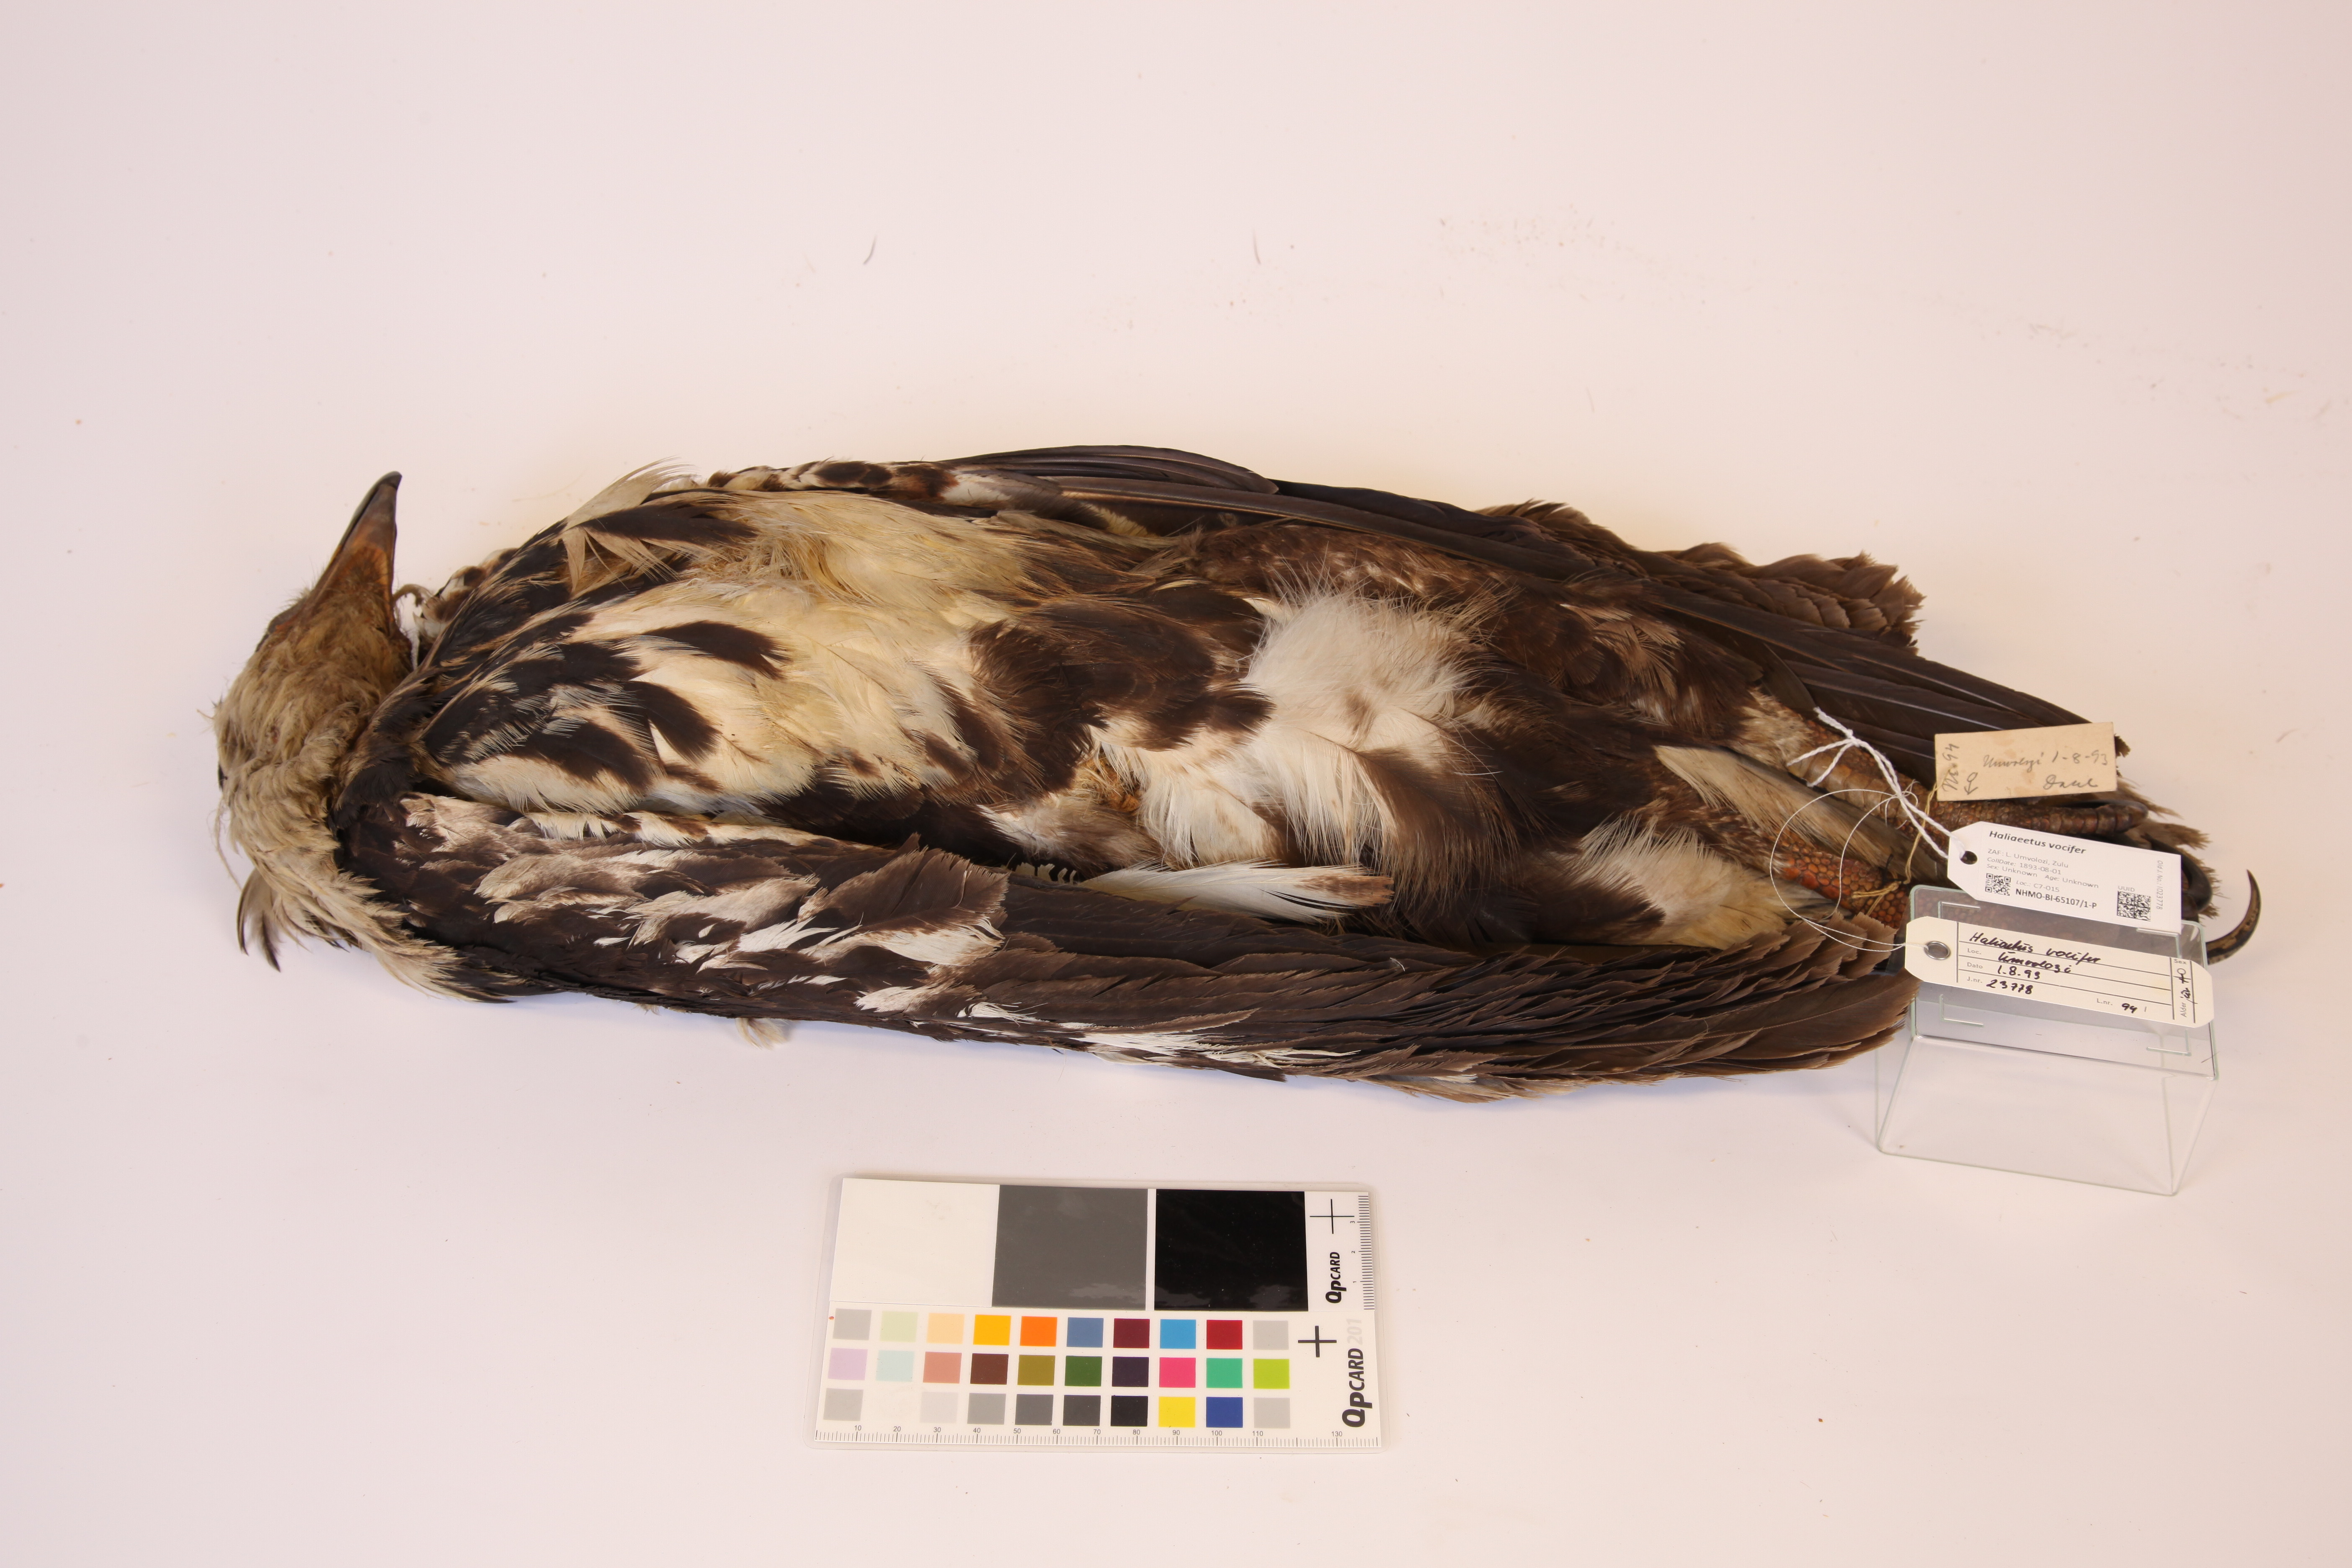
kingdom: Animalia
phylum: Chordata
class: Aves
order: Accipitriformes
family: Accipitridae
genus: Haliaeetus
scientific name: Haliaeetus vocifer
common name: African fish eagle
